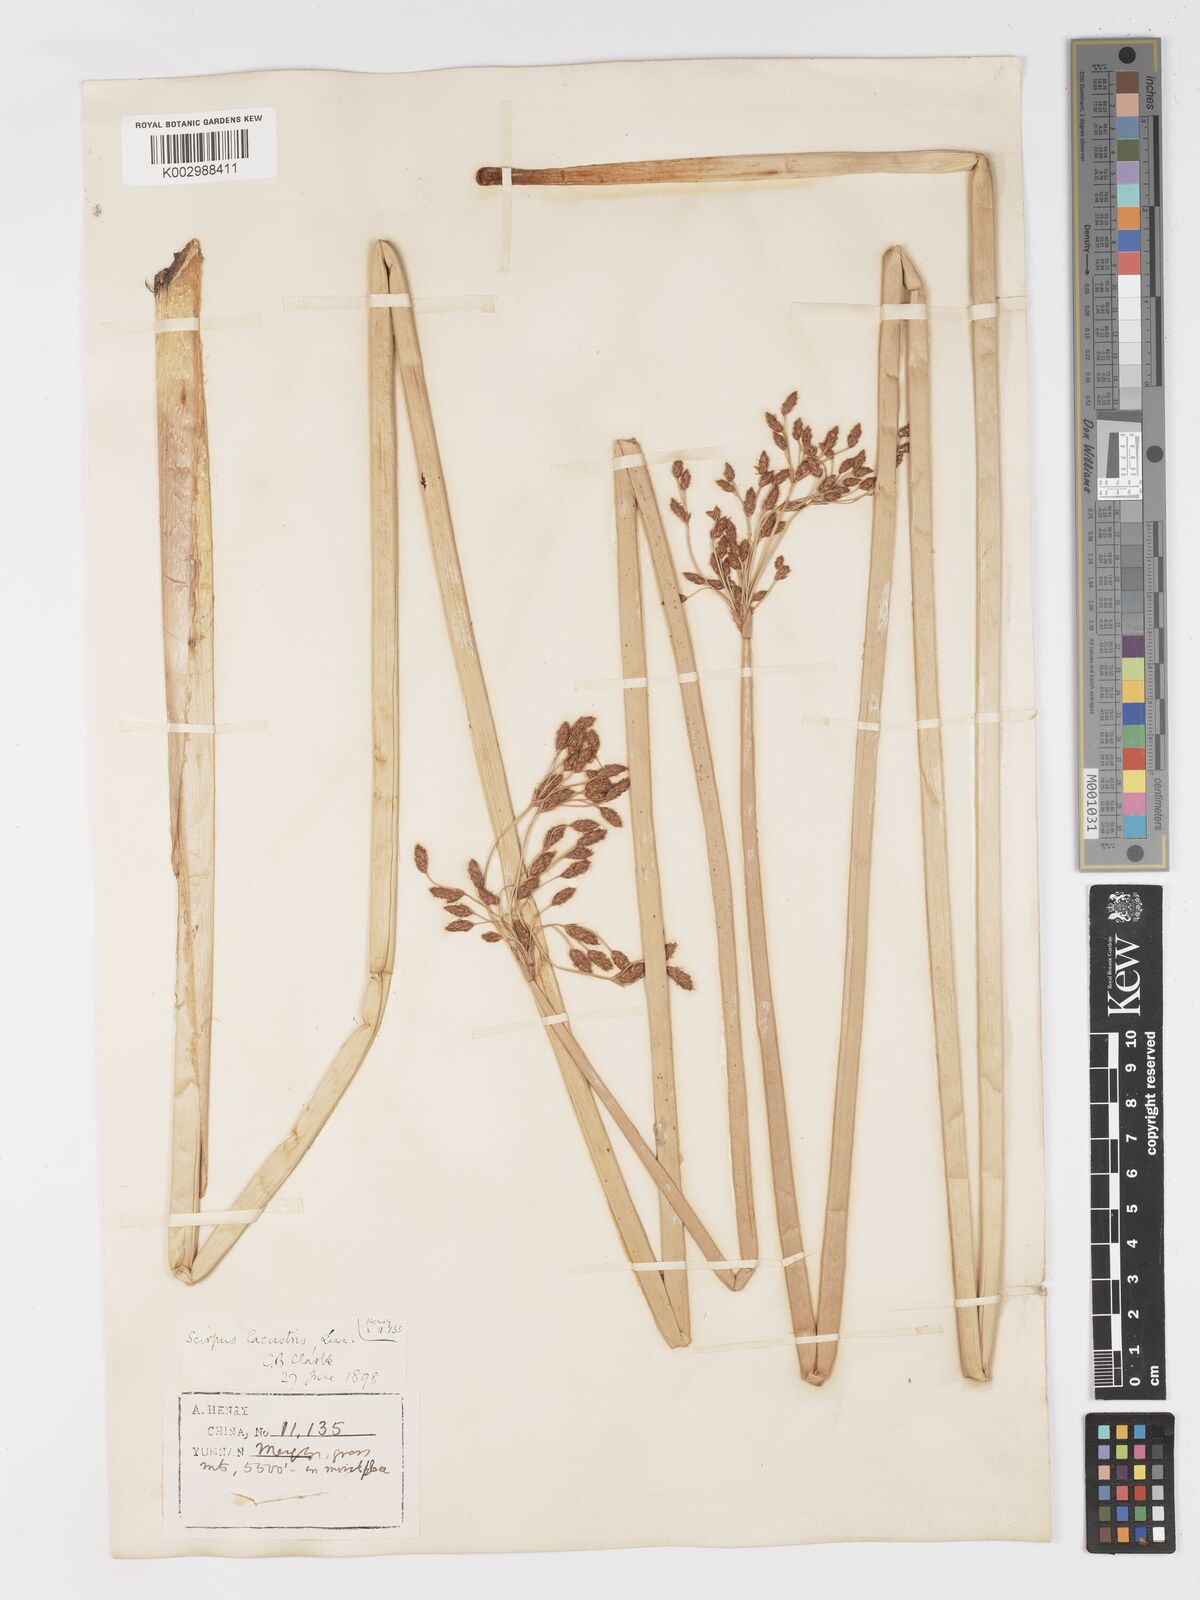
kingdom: Plantae
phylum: Tracheophyta
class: Liliopsida
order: Poales
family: Cyperaceae
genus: Schoenoplectus
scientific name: Schoenoplectus lacustris
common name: Common club-rush
